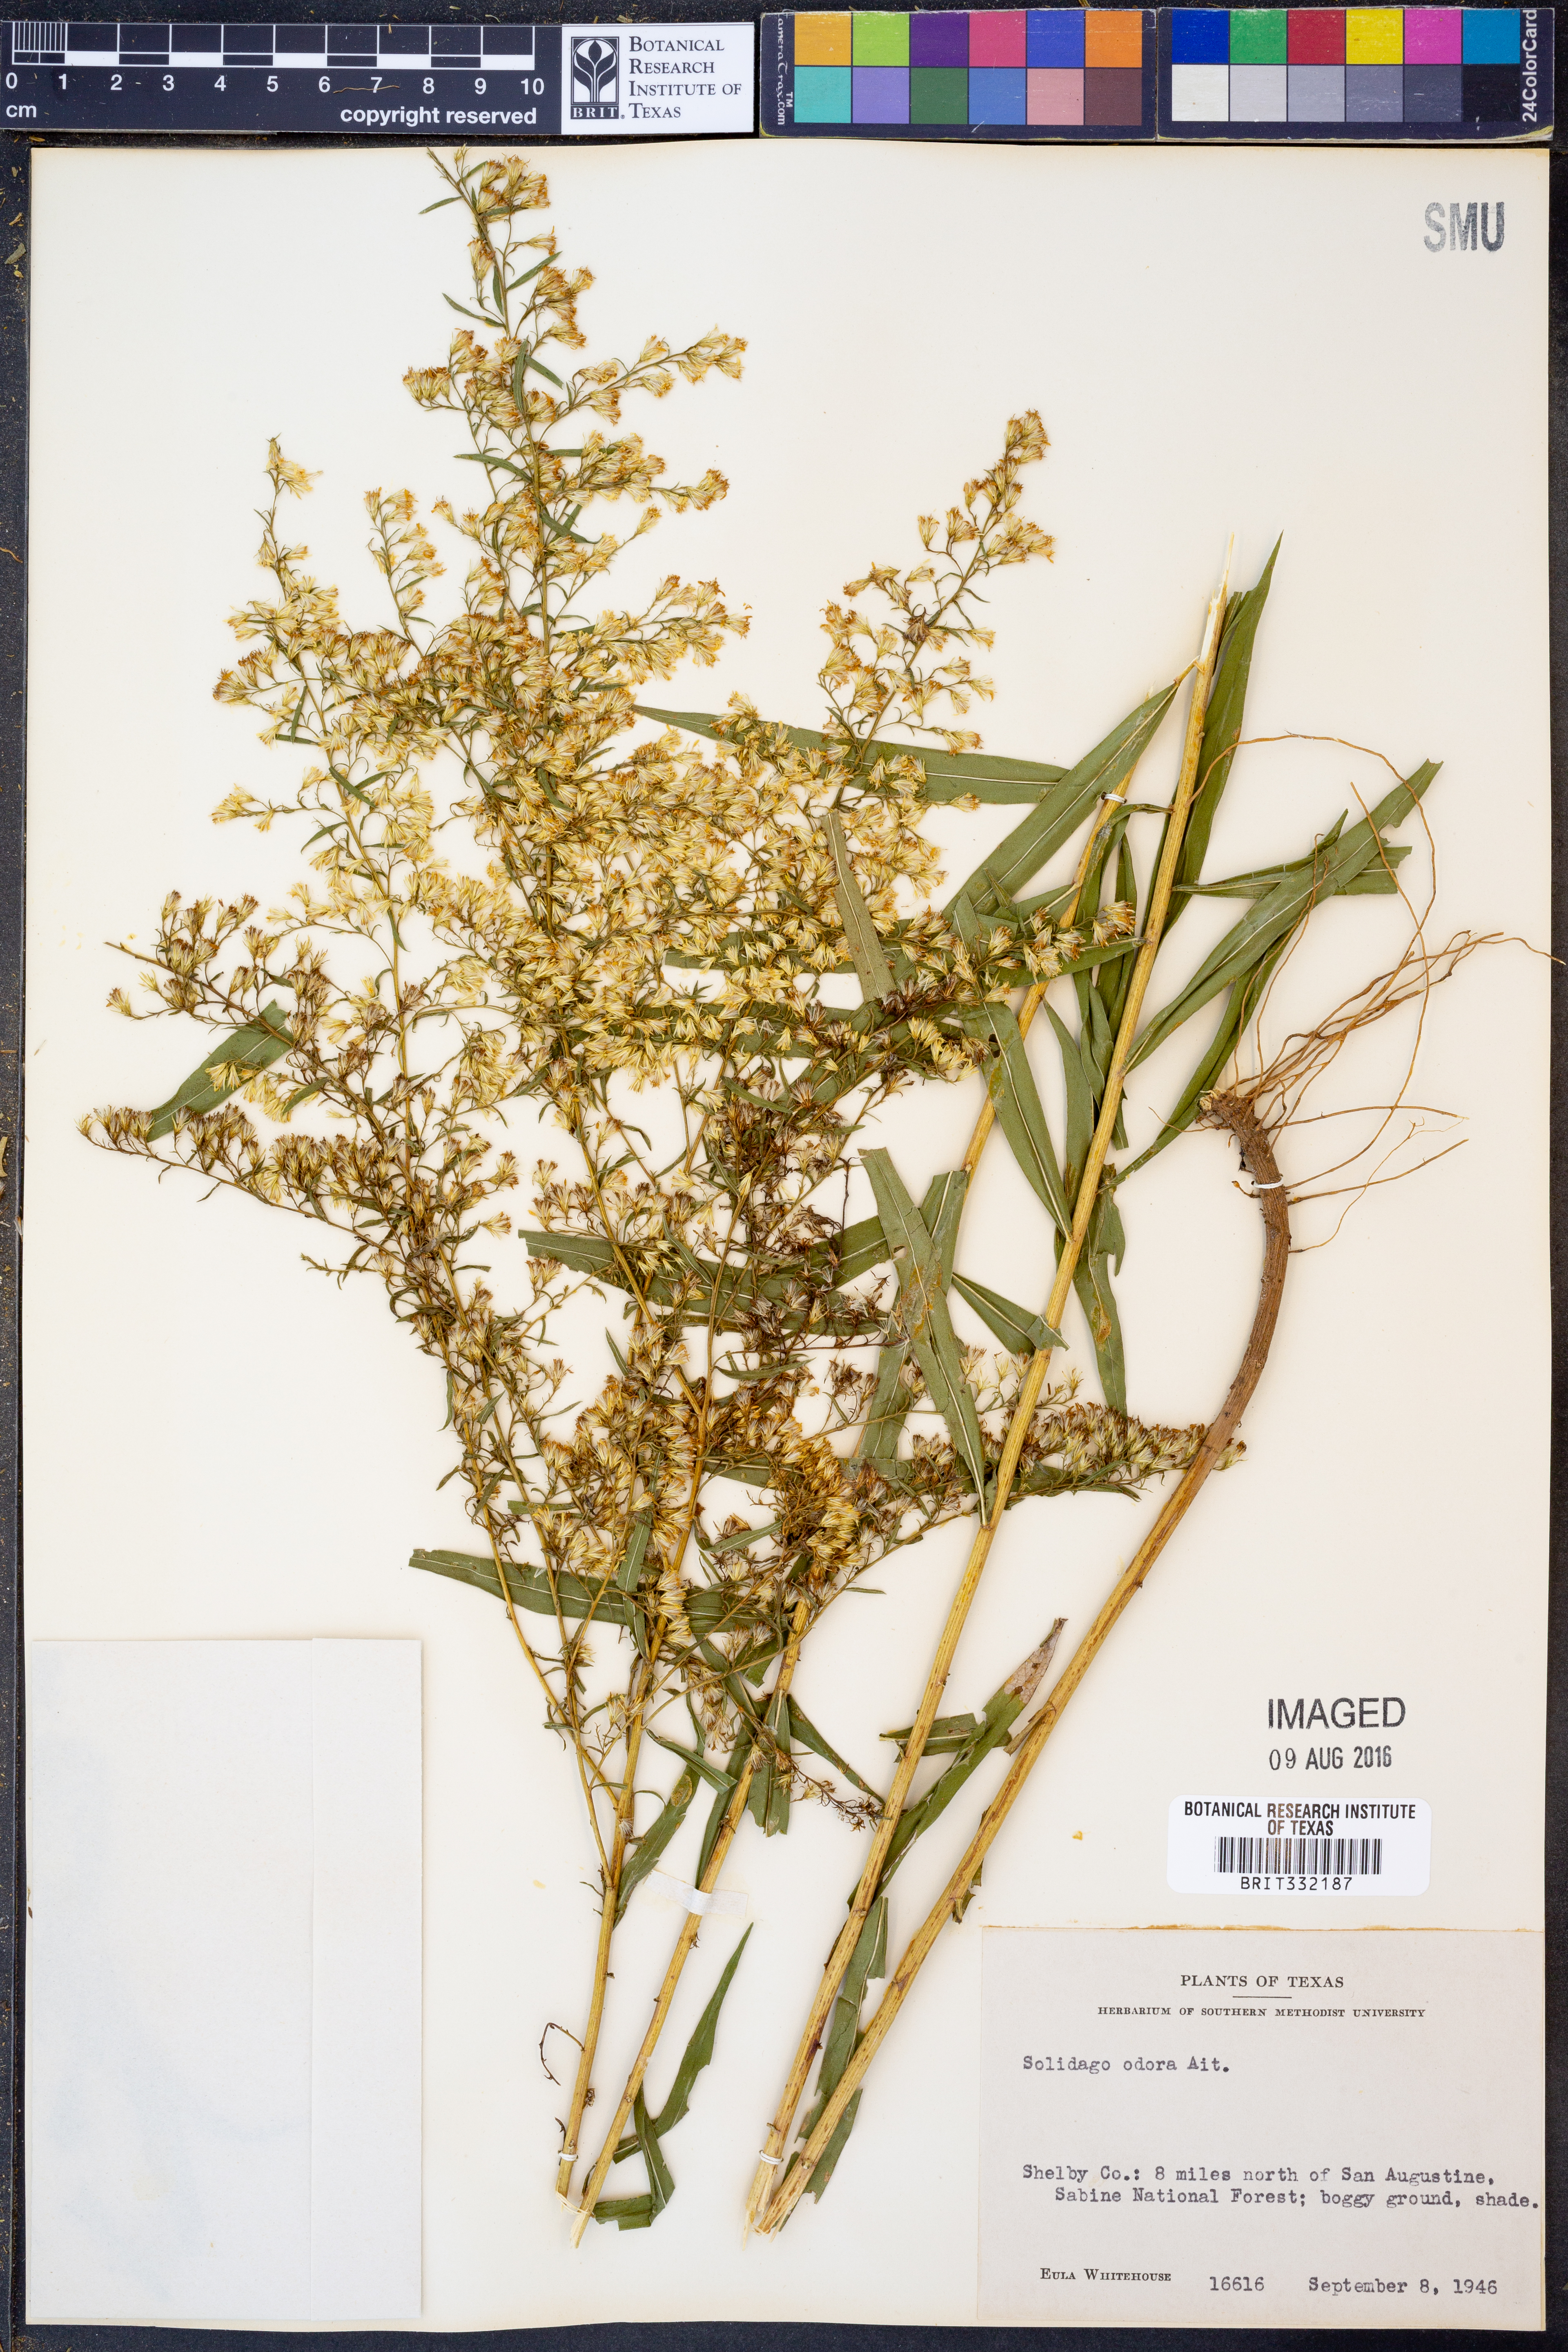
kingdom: Plantae
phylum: Tracheophyta
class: Magnoliopsida
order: Asterales
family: Asteraceae
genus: Solidago
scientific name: Solidago odora
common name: Anise-scented goldenrod
